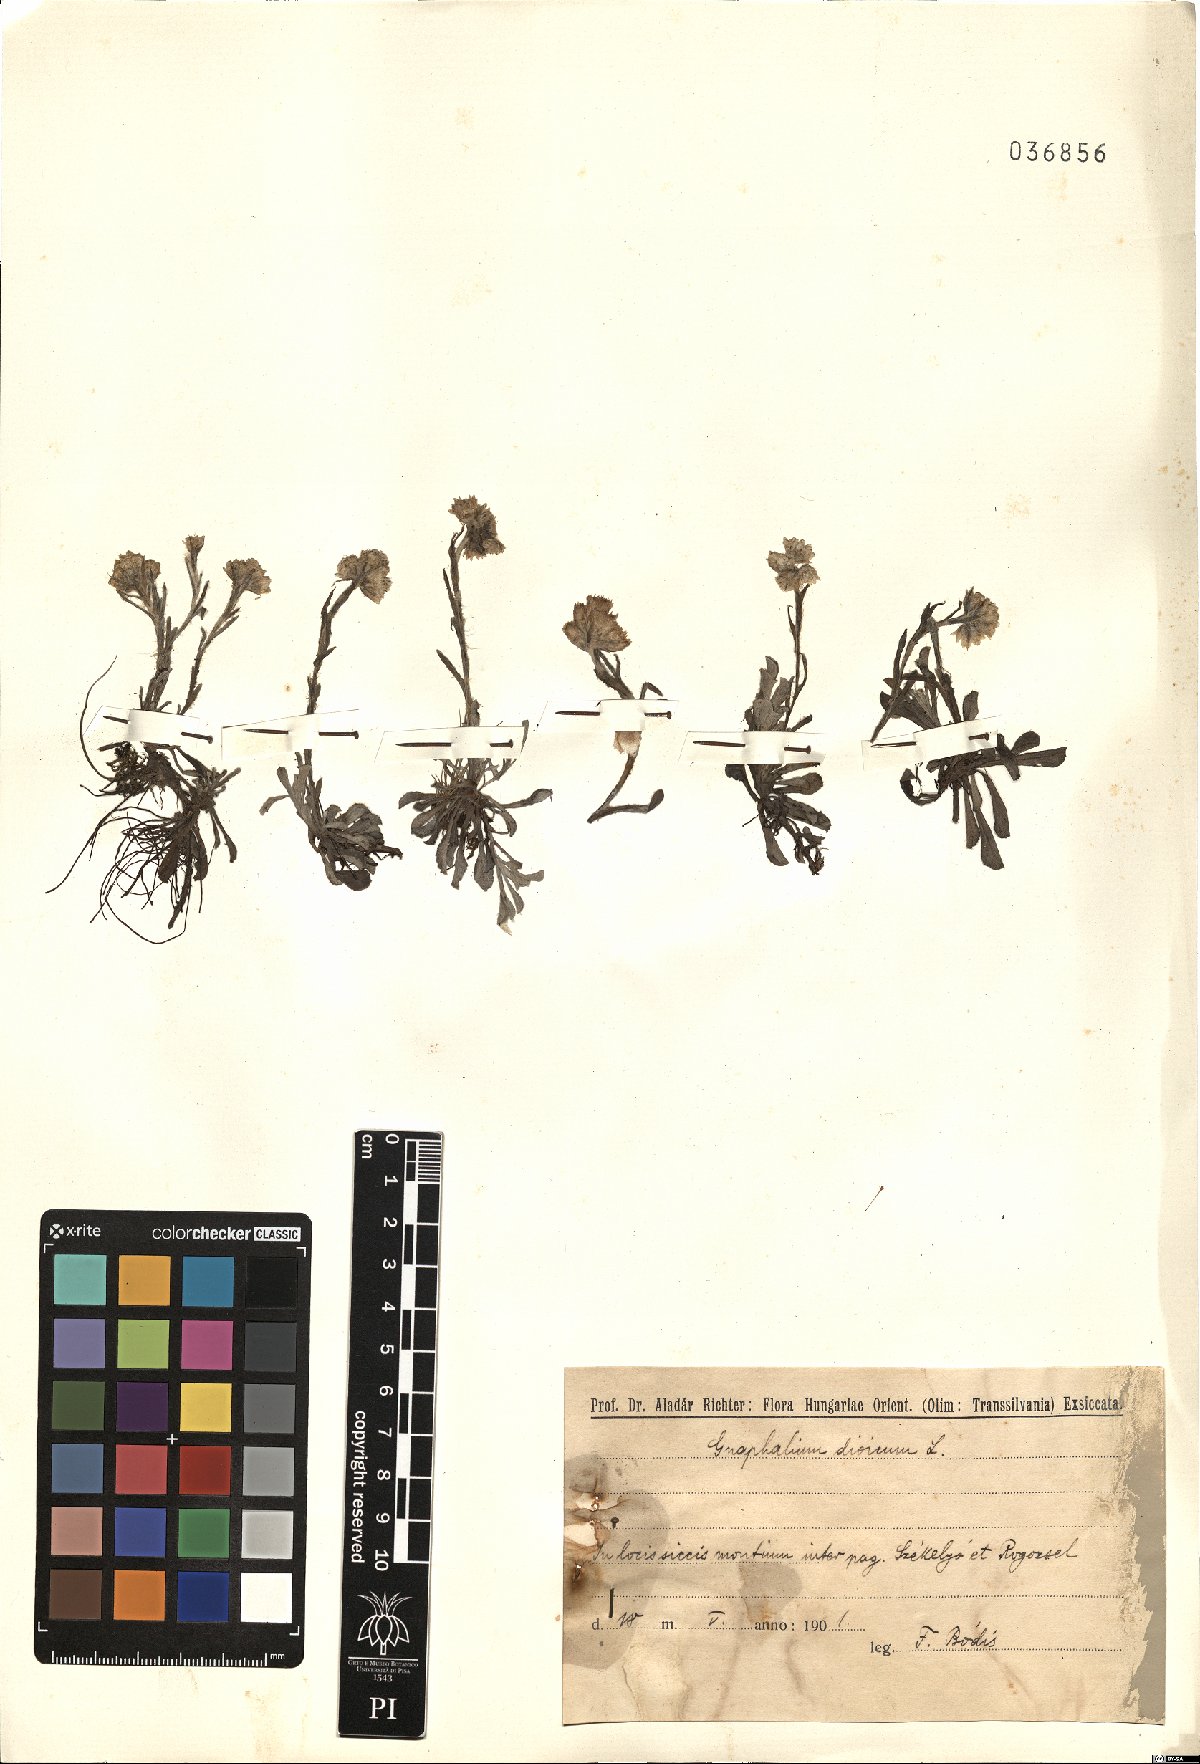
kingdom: Plantae
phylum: Tracheophyta
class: Magnoliopsida
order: Asterales
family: Asteraceae
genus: Antennaria
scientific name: Antennaria dioica
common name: Mountain everlasting
